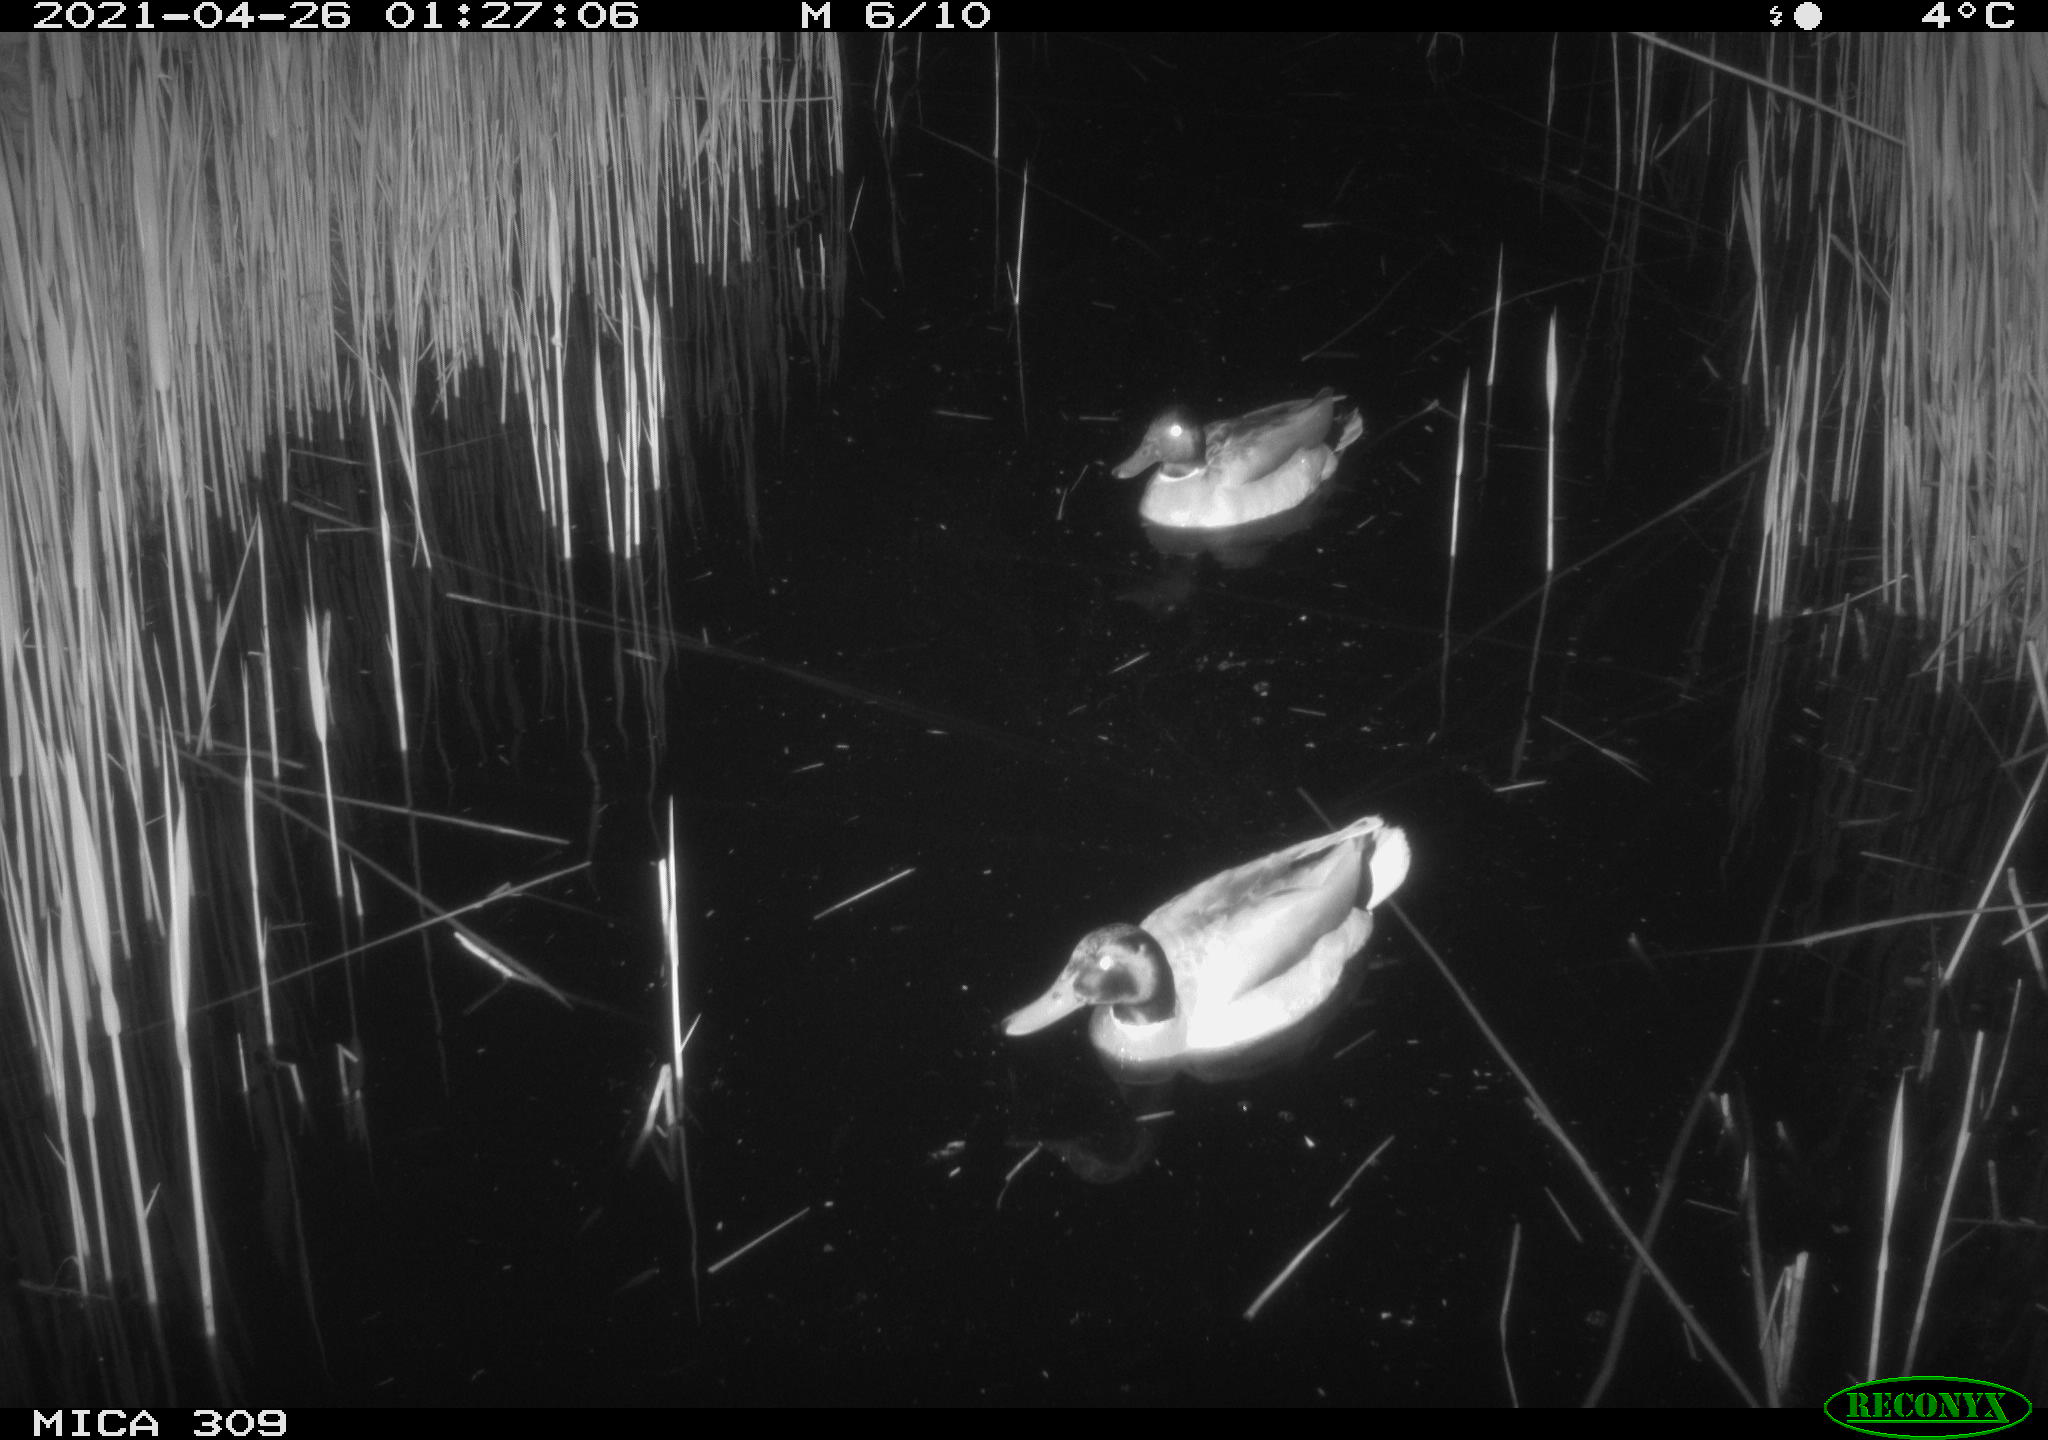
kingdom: Animalia
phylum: Chordata
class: Aves
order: Anseriformes
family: Anatidae
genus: Anas
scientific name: Anas platyrhynchos
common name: Mallard
